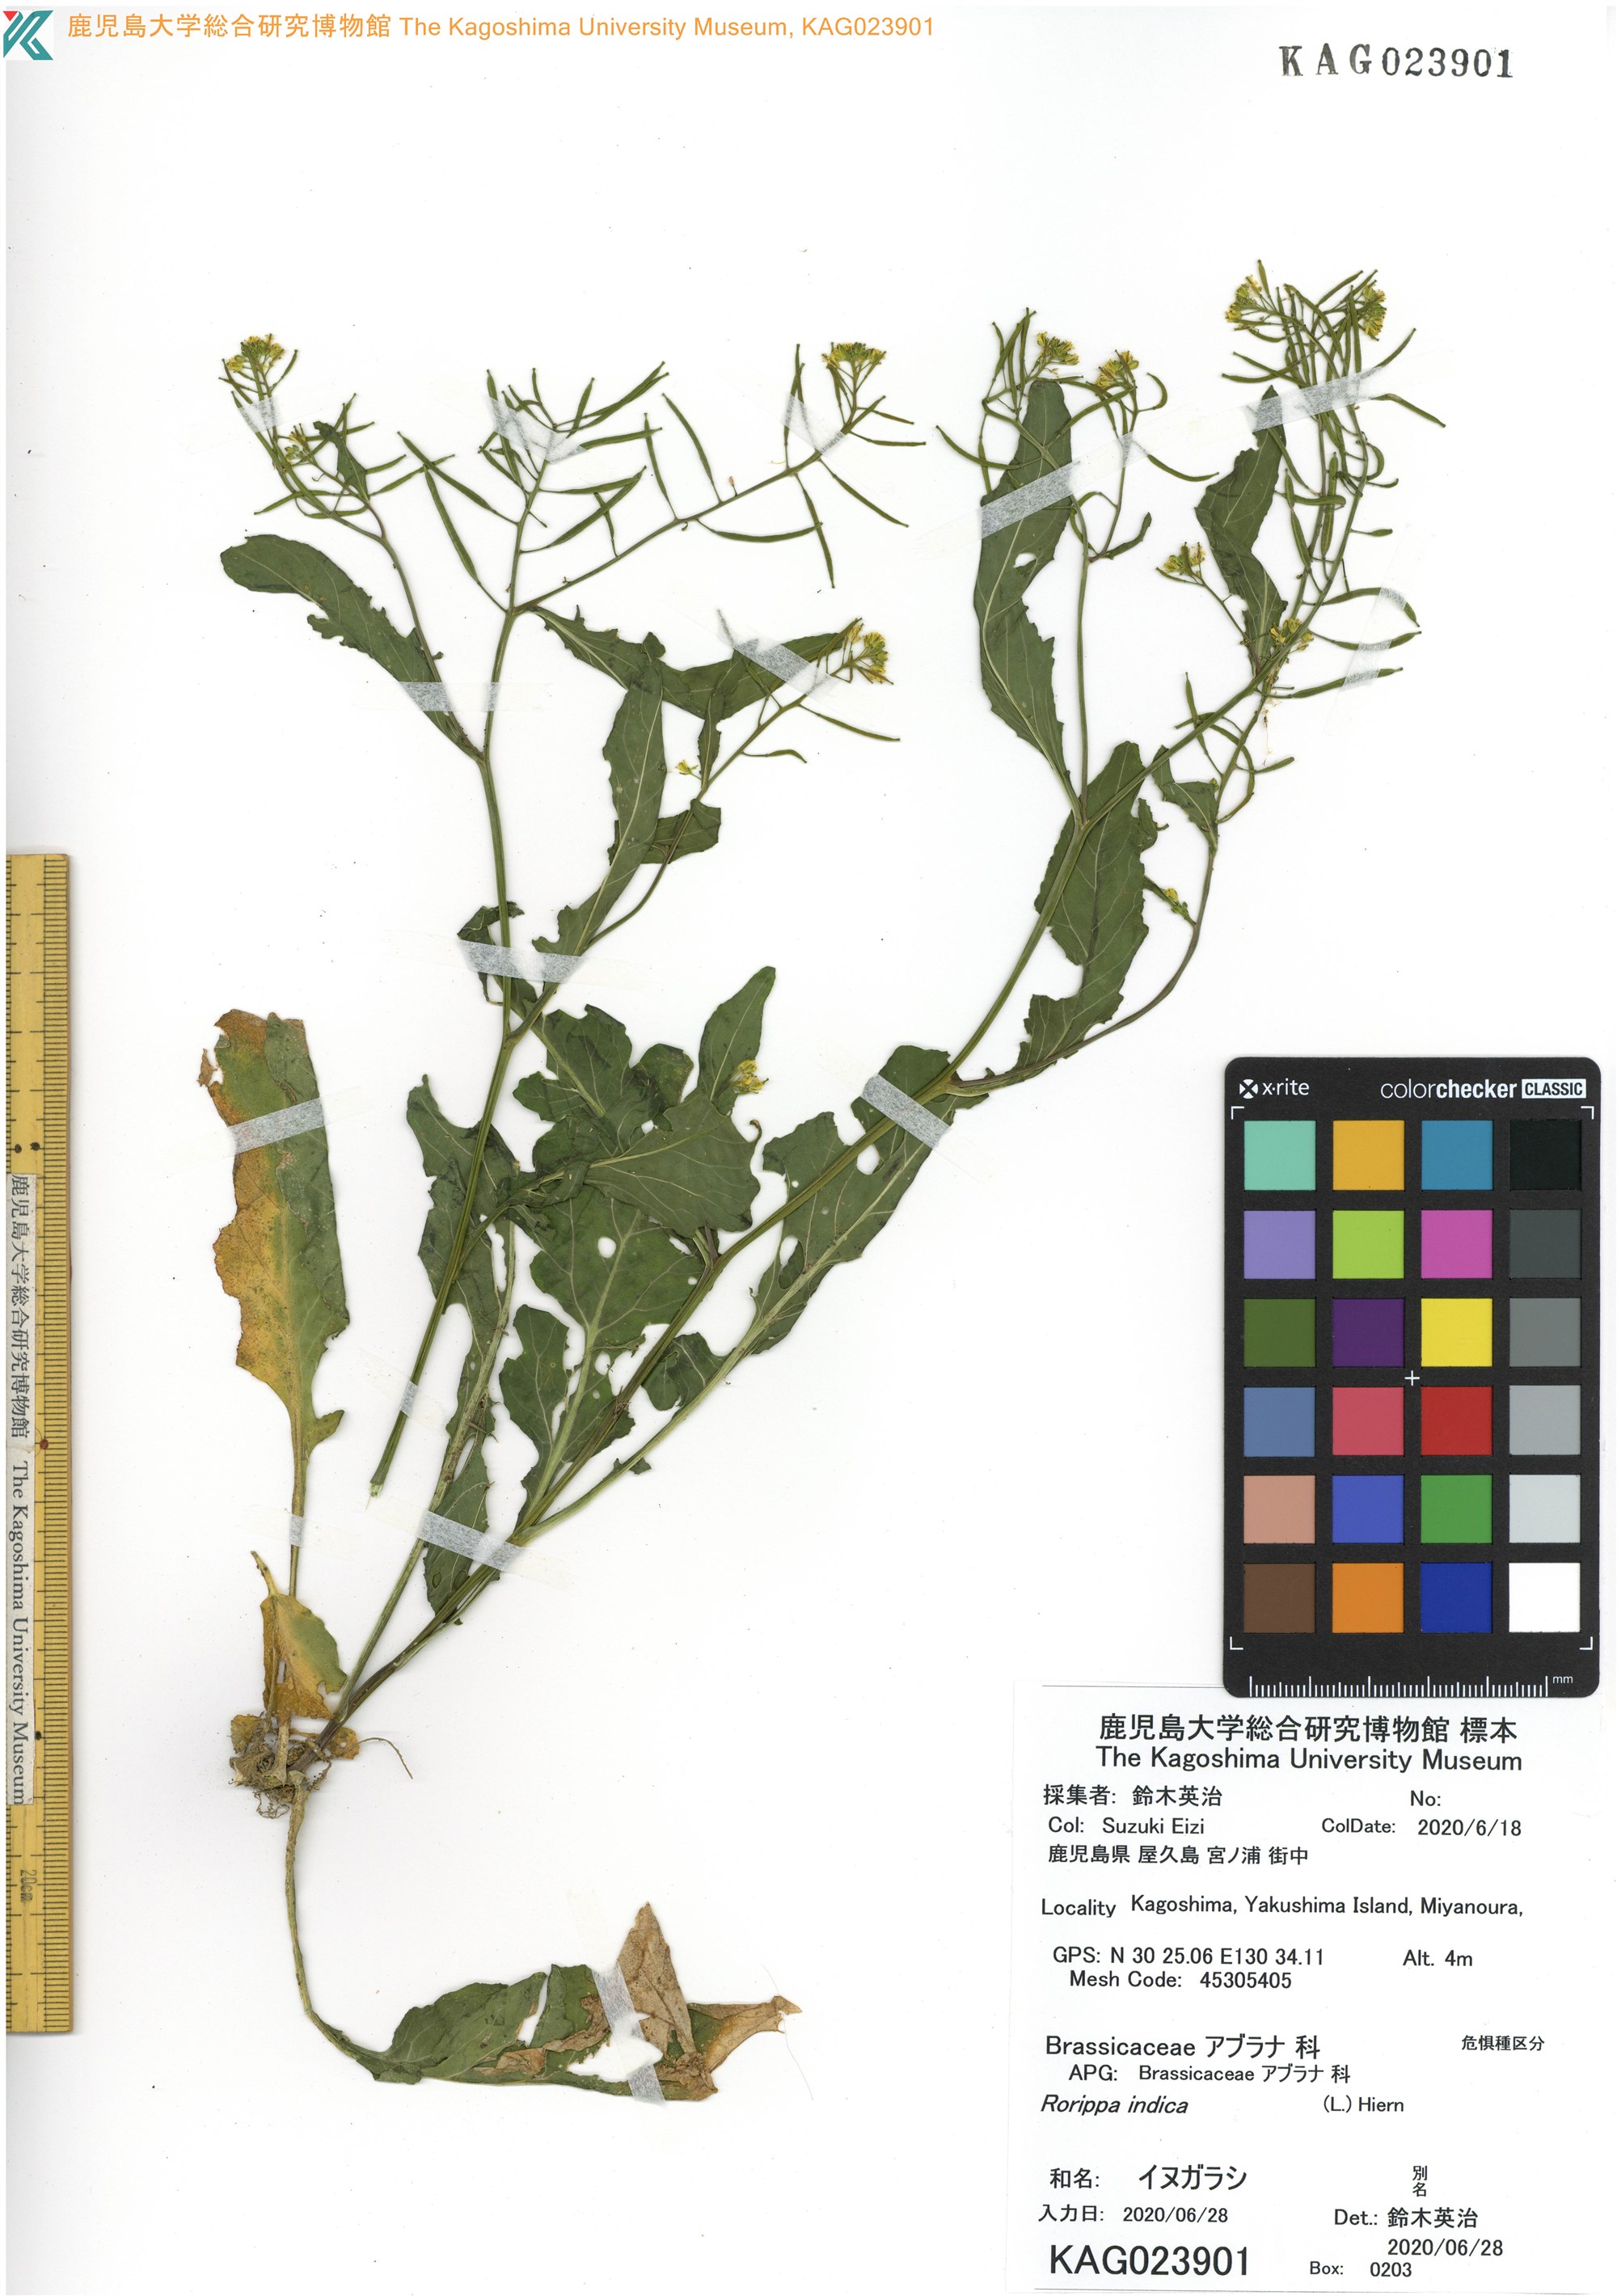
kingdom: Plantae
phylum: Tracheophyta
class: Magnoliopsida
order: Brassicales
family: Brassicaceae
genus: Rorippa
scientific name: Rorippa indica
